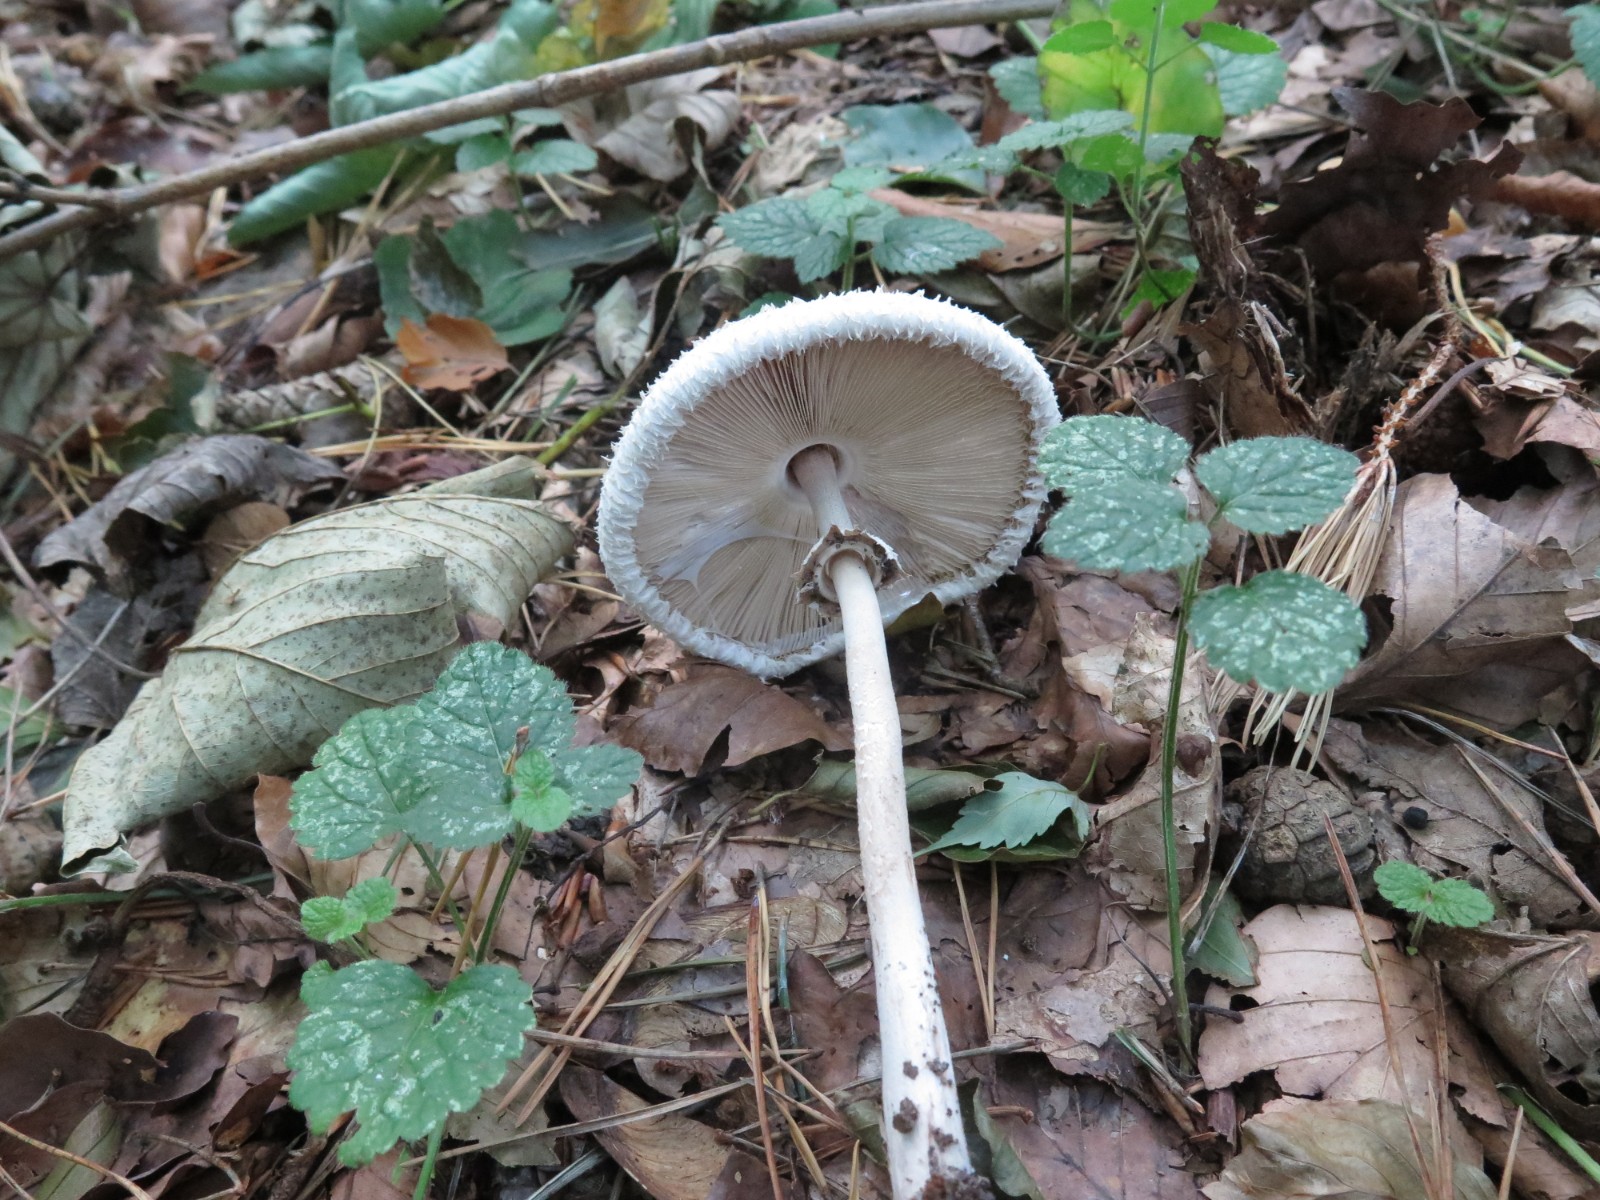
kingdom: Fungi
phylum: Basidiomycota
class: Agaricomycetes
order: Agaricales
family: Agaricaceae
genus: Macrolepiota
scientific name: Macrolepiota mastoidea
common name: puklet kæmpeparasolhat
